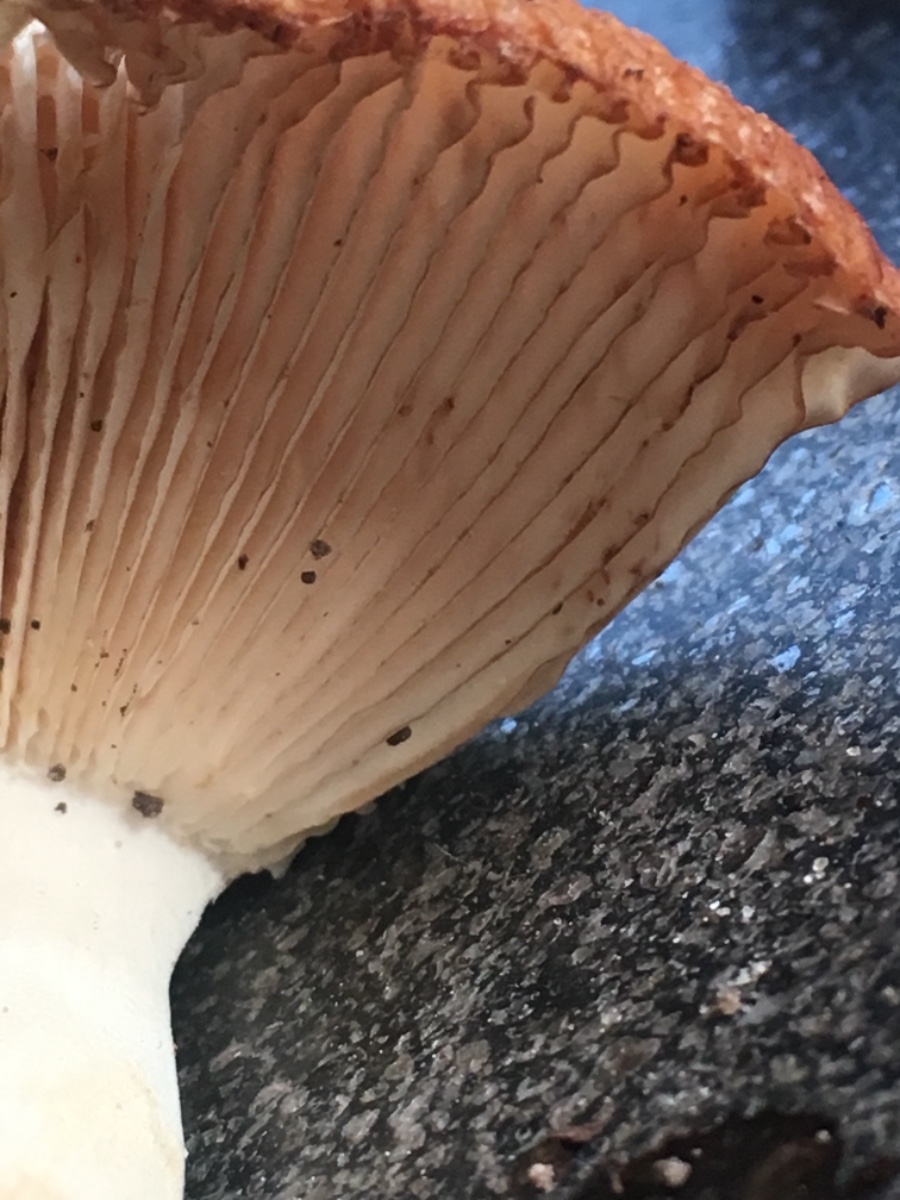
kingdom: Fungi
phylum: Basidiomycota
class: Agaricomycetes
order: Russulales
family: Russulaceae
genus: Russula
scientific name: Russula foetens
